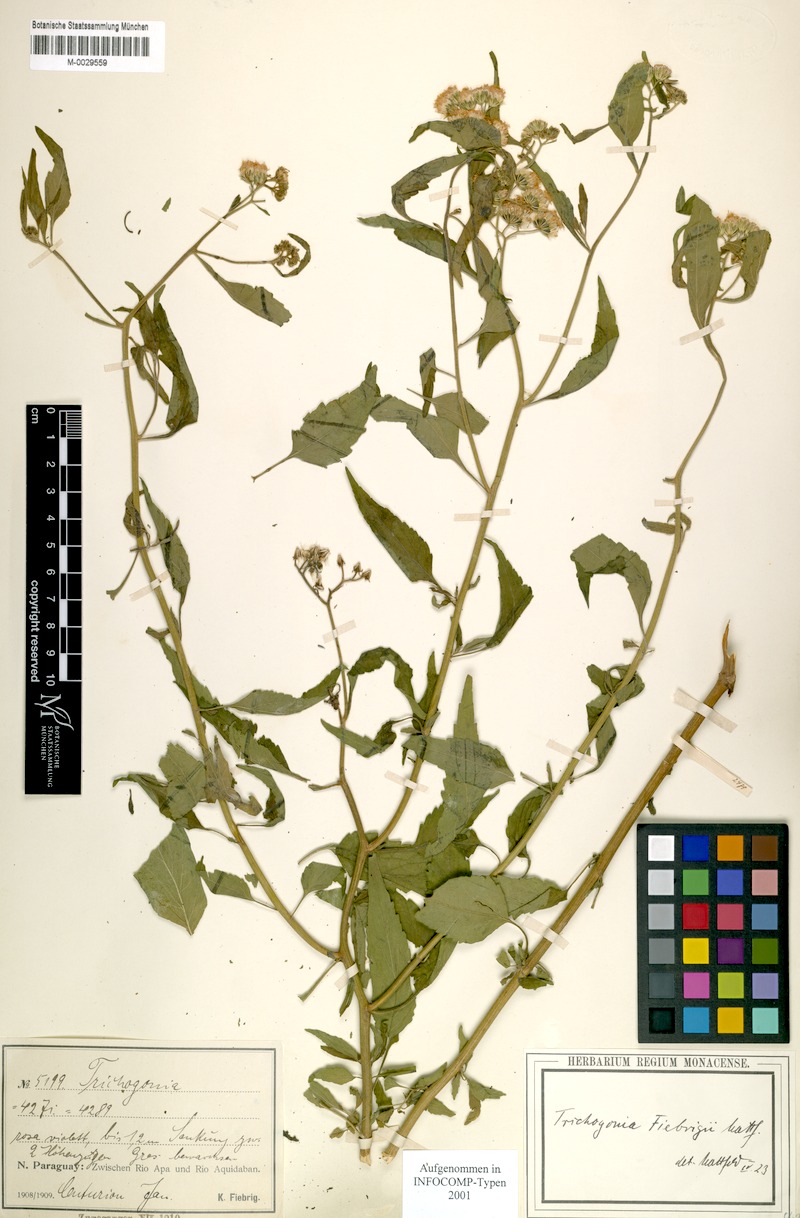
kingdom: Plantae
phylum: Tracheophyta
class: Magnoliopsida
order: Asterales
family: Asteraceae
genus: Trichogonia
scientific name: Trichogonia fiebrigii
